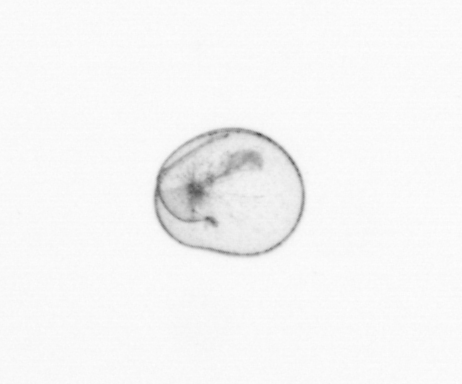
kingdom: Chromista
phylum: Myzozoa
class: Dinophyceae
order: Noctilucales
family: Noctilucaceae
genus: Noctiluca
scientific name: Noctiluca scintillans
